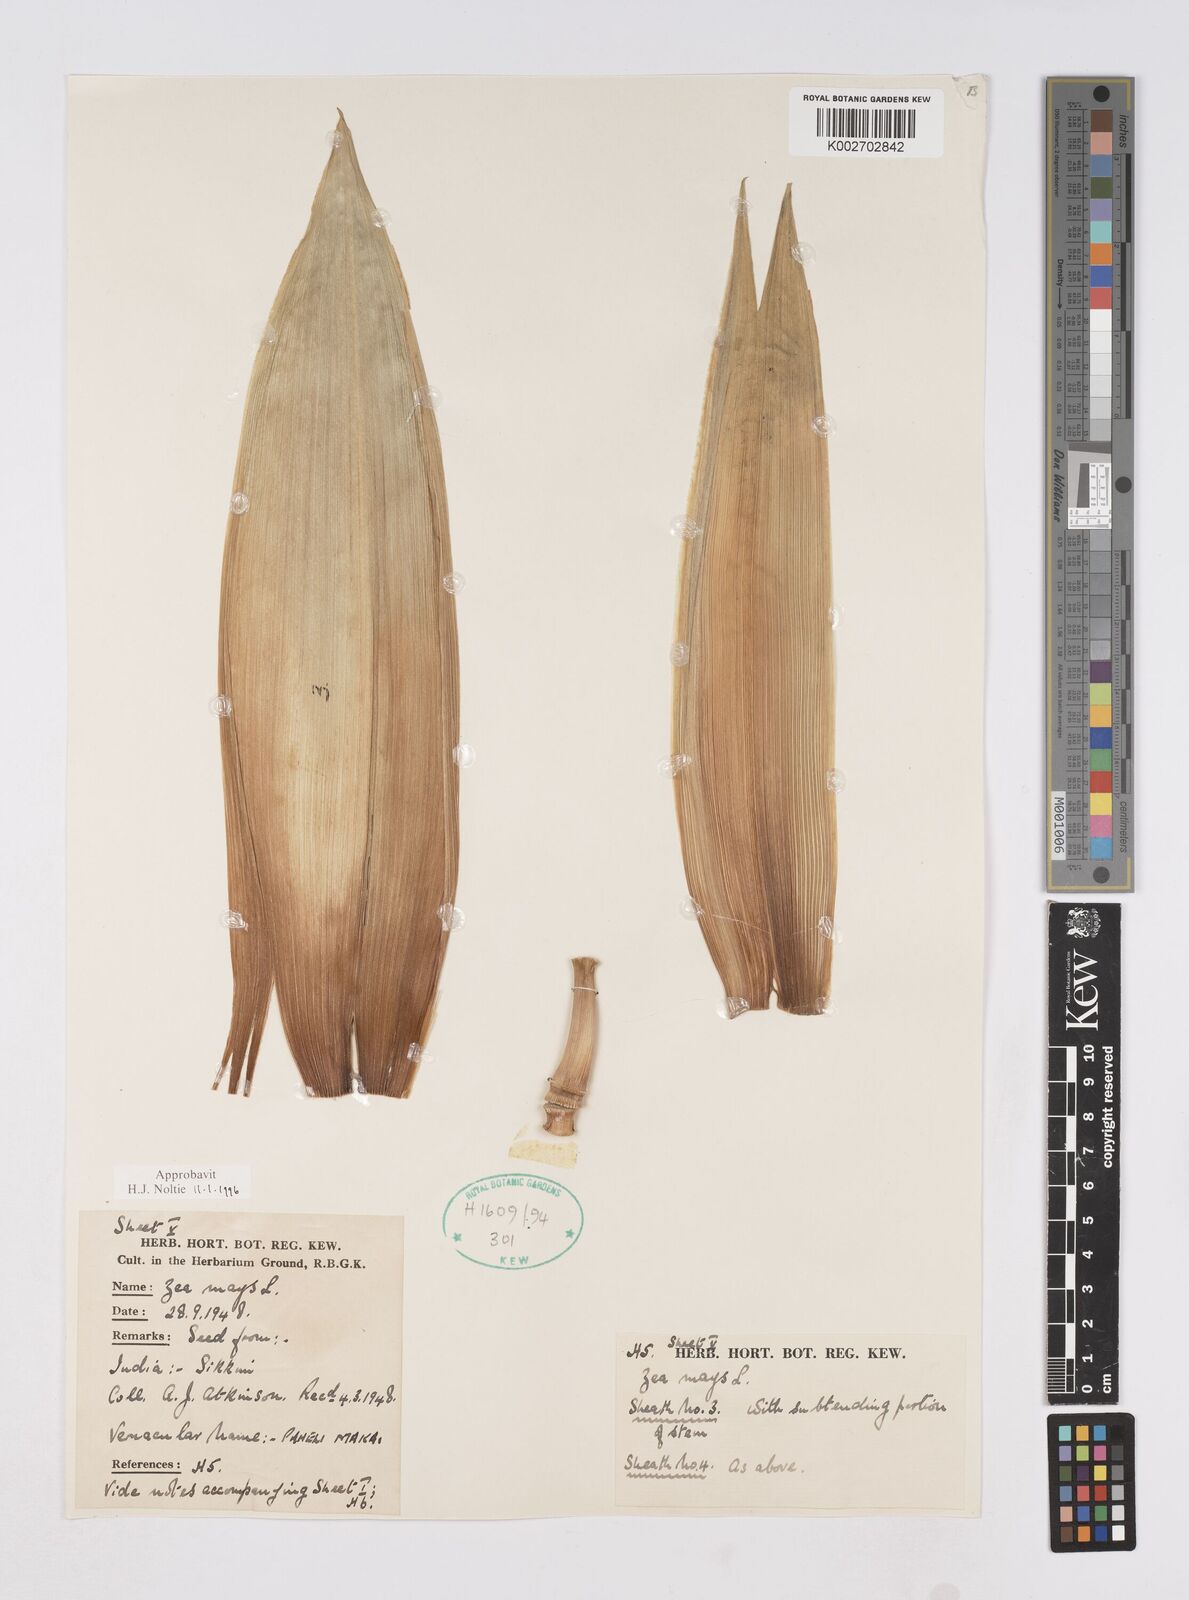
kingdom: Plantae
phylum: Tracheophyta
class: Liliopsida
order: Poales
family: Poaceae
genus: Zea
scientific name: Zea mays
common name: Maize
